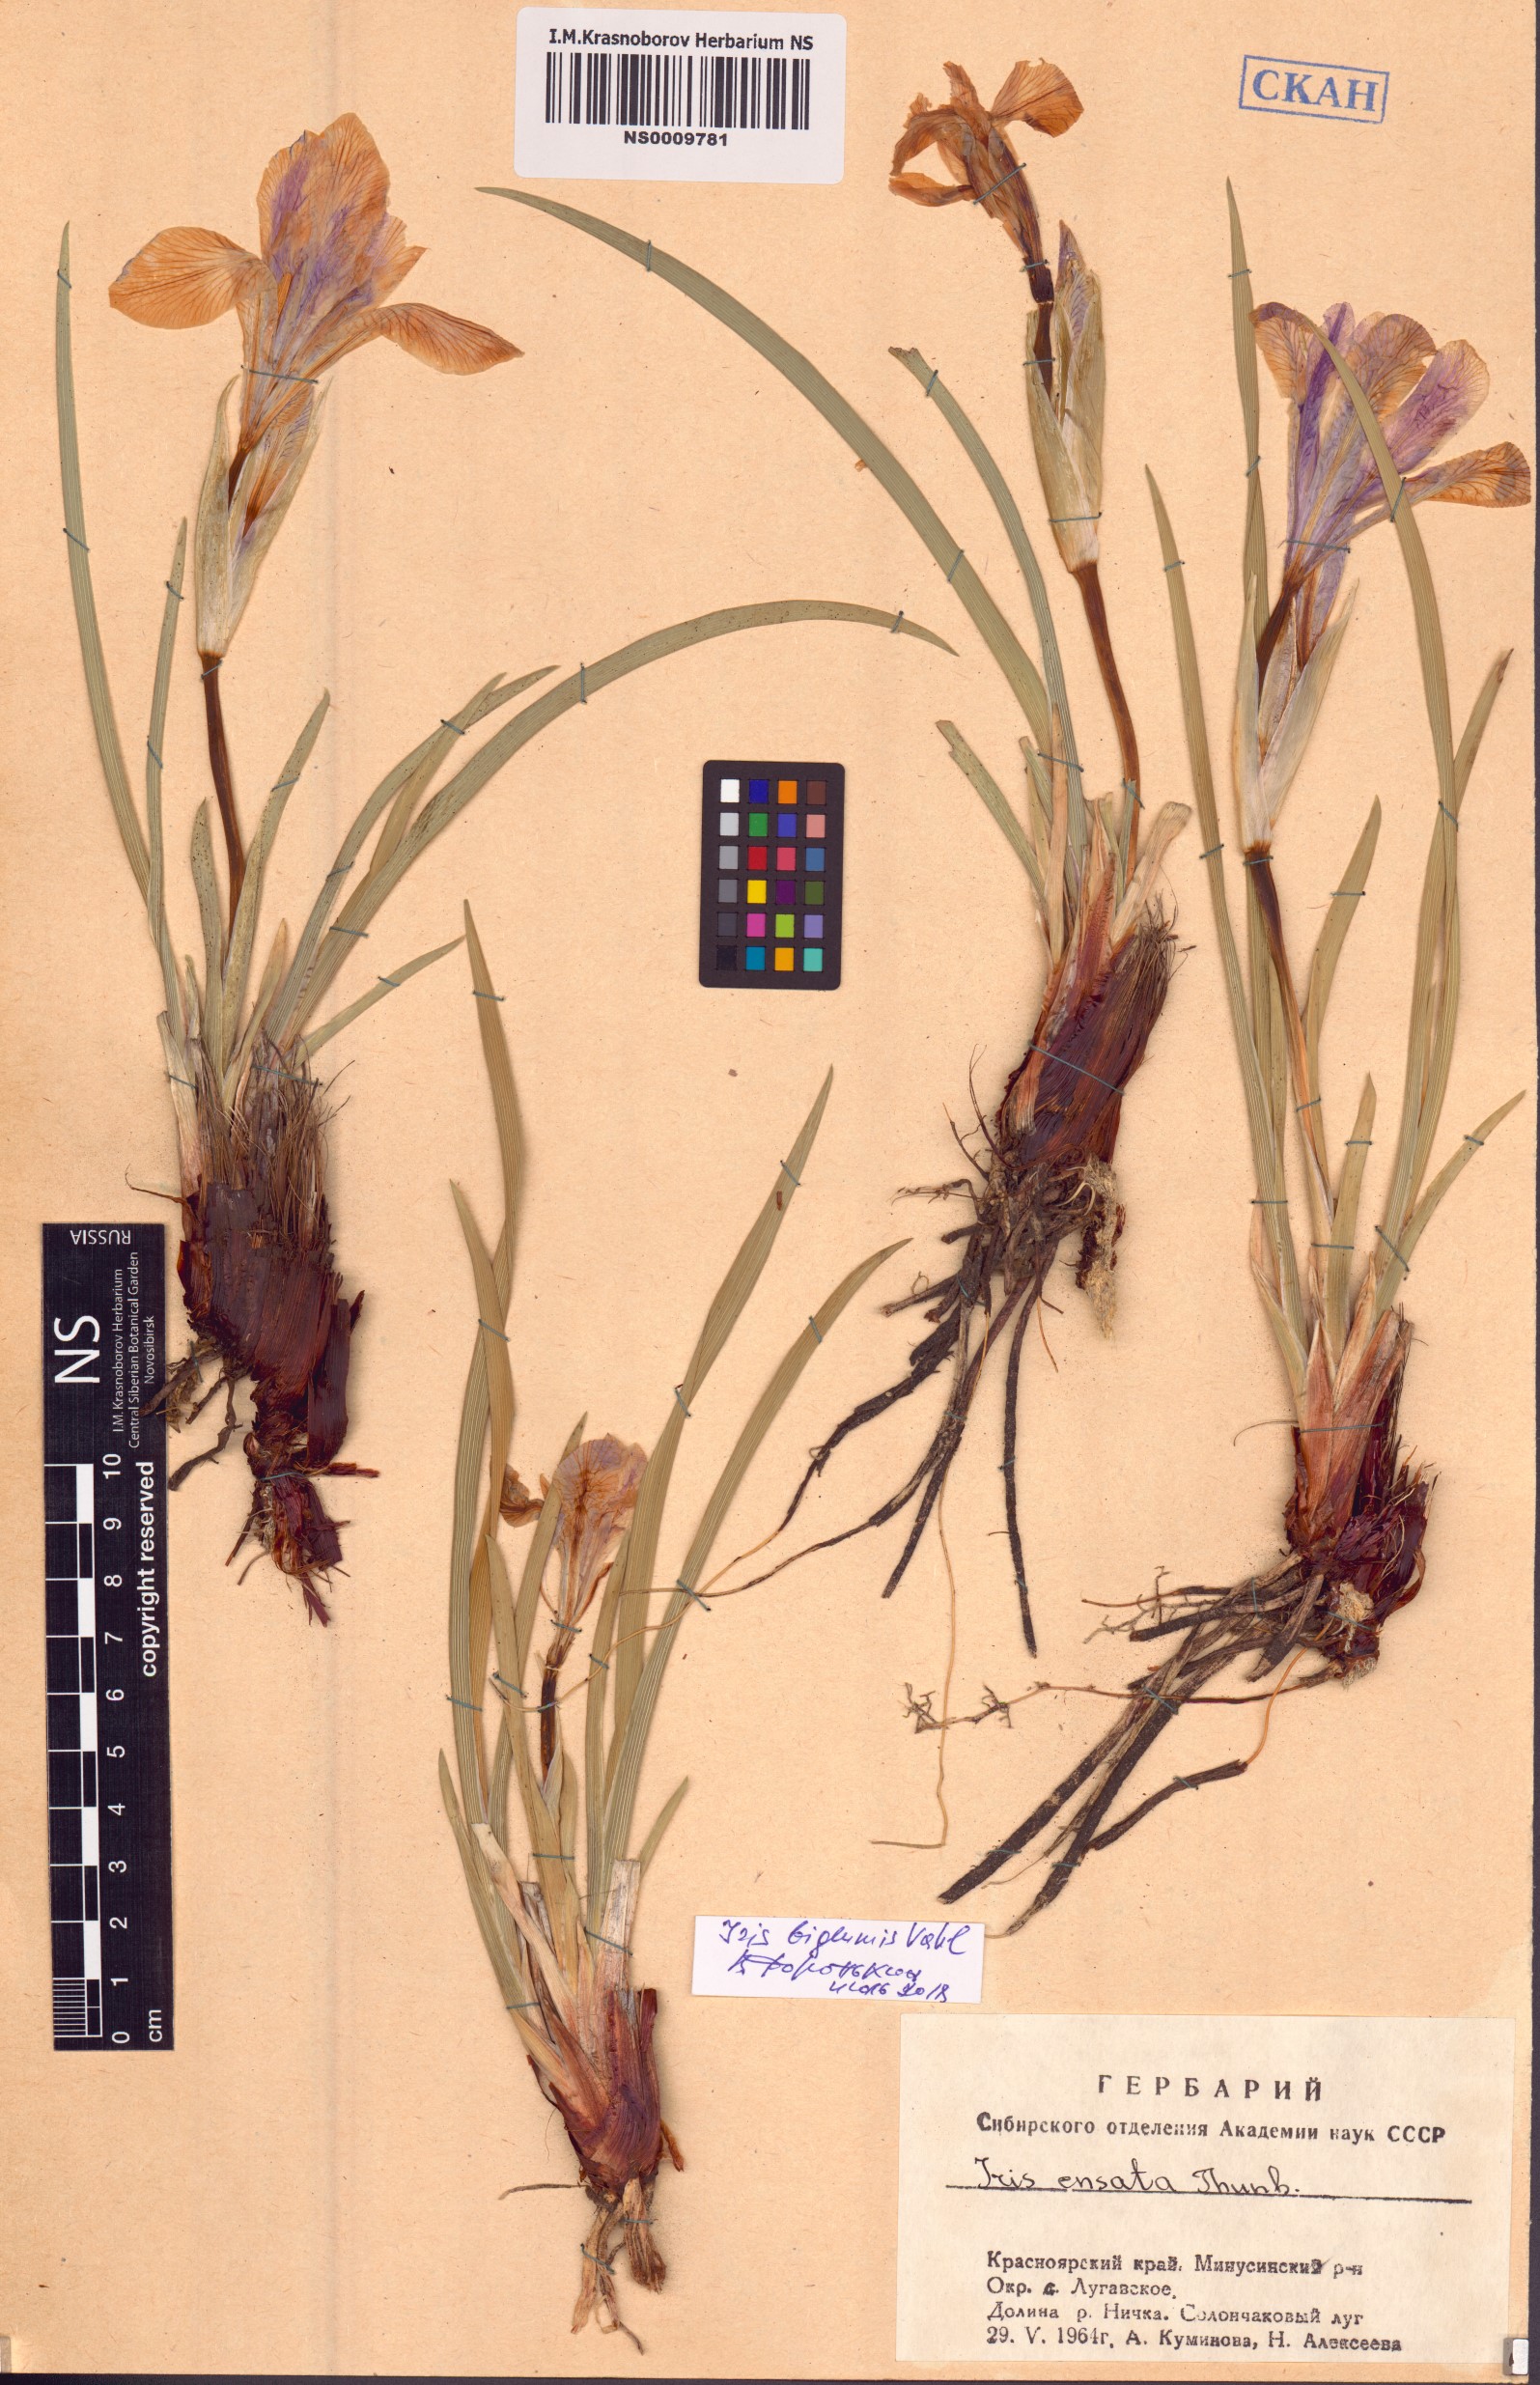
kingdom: Plantae
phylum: Tracheophyta
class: Liliopsida
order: Asparagales
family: Iridaceae
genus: Iris
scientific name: Iris lactea
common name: White-flower chinese iris
